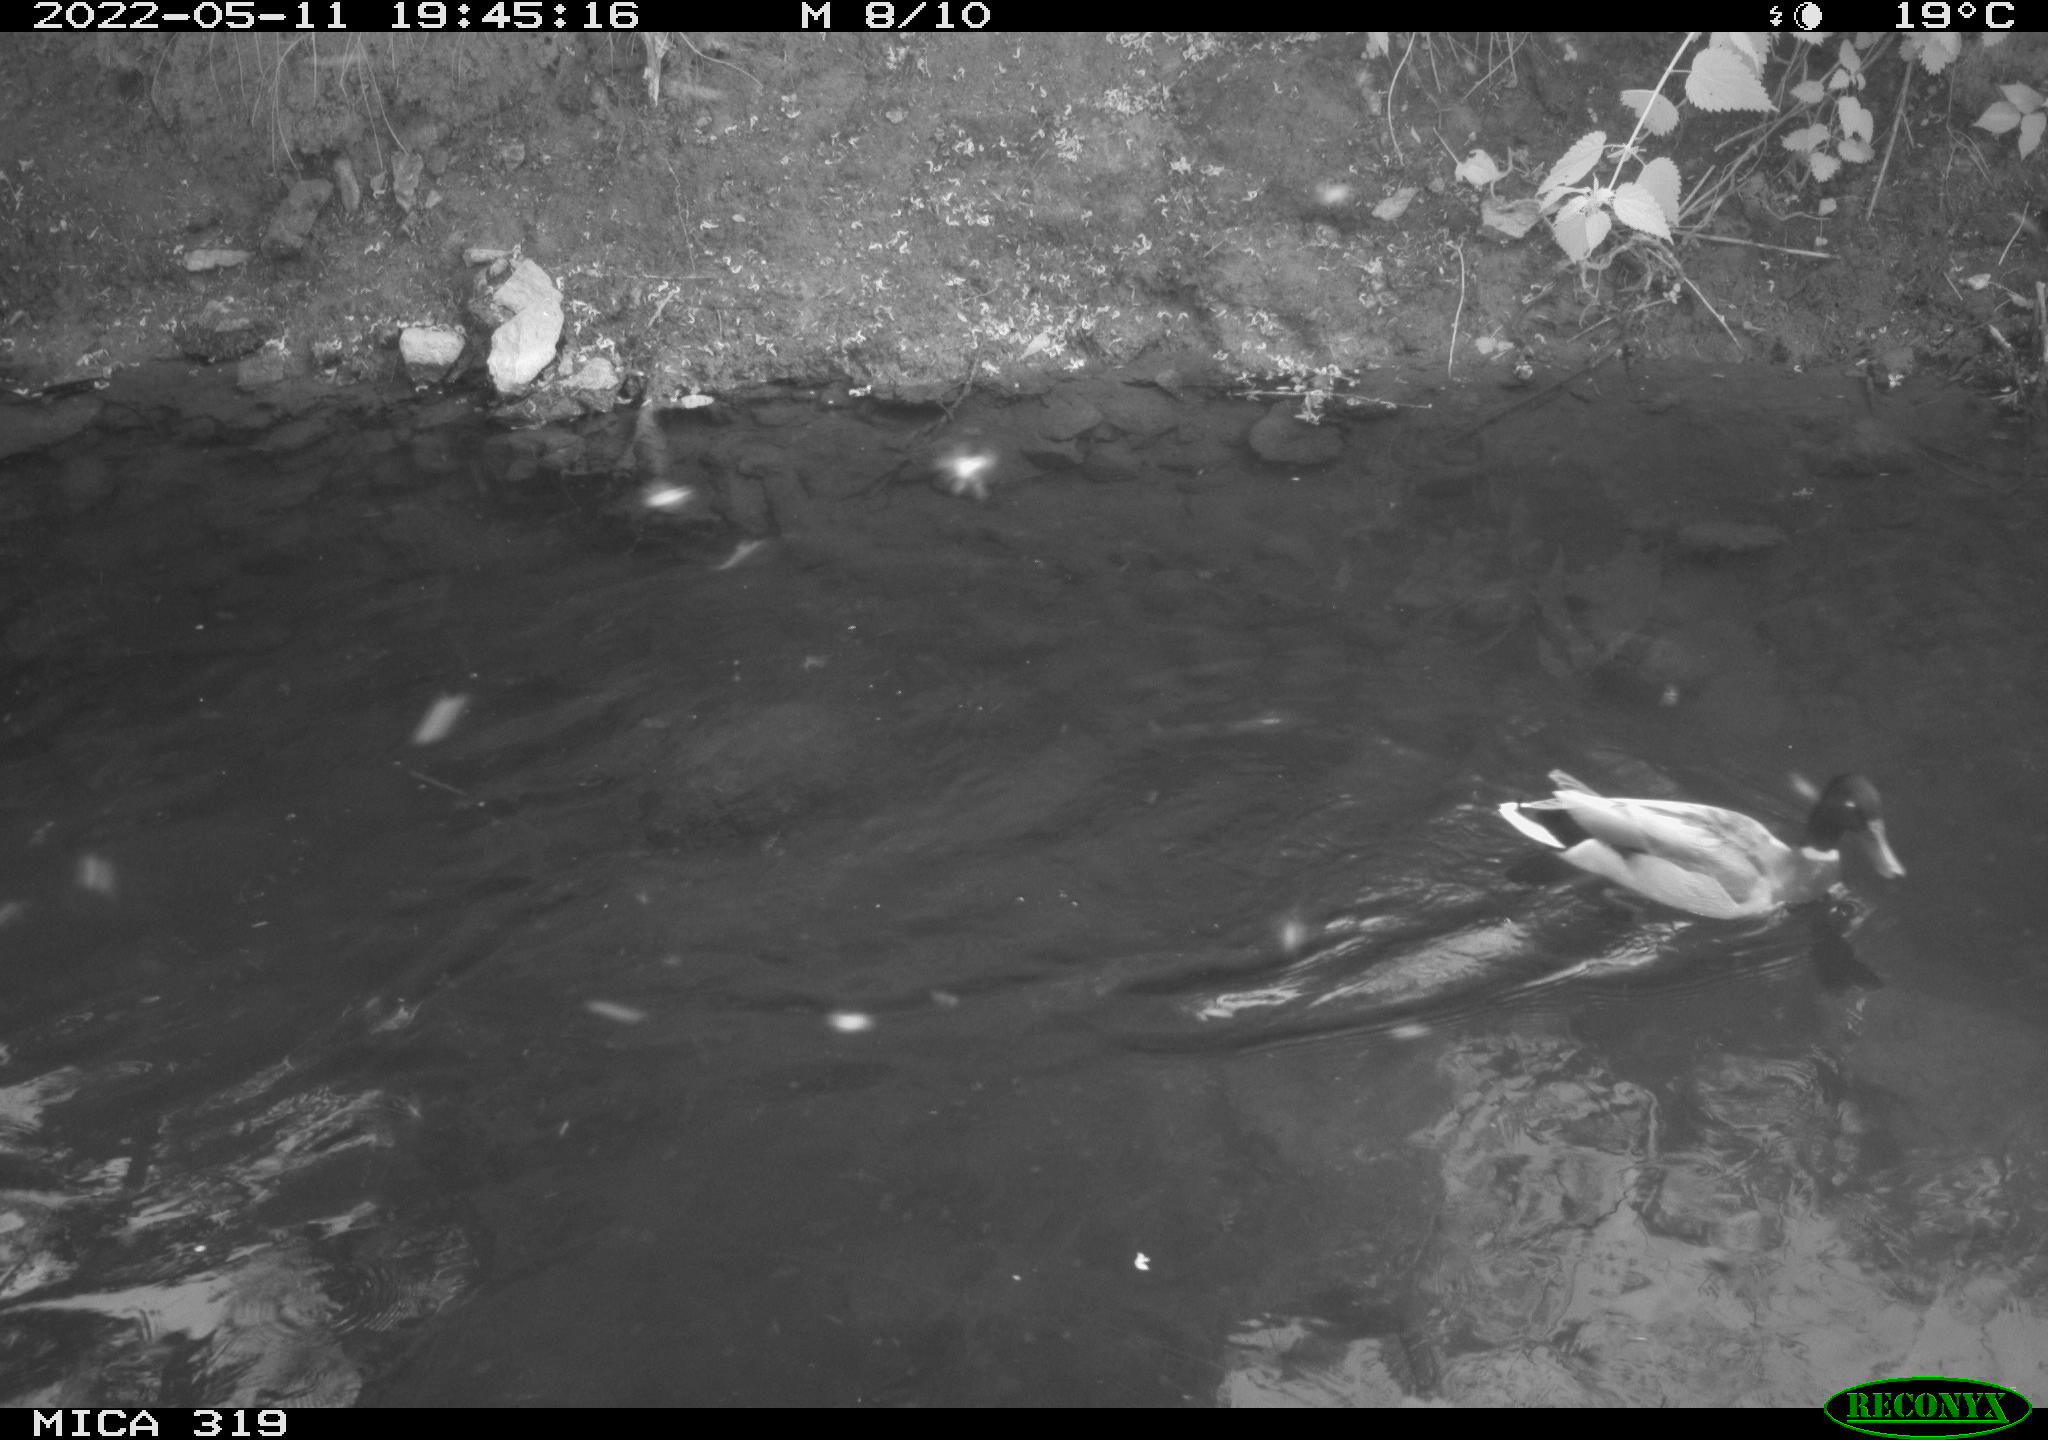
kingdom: Animalia
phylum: Chordata
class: Aves
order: Anseriformes
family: Anatidae
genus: Anas
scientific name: Anas
